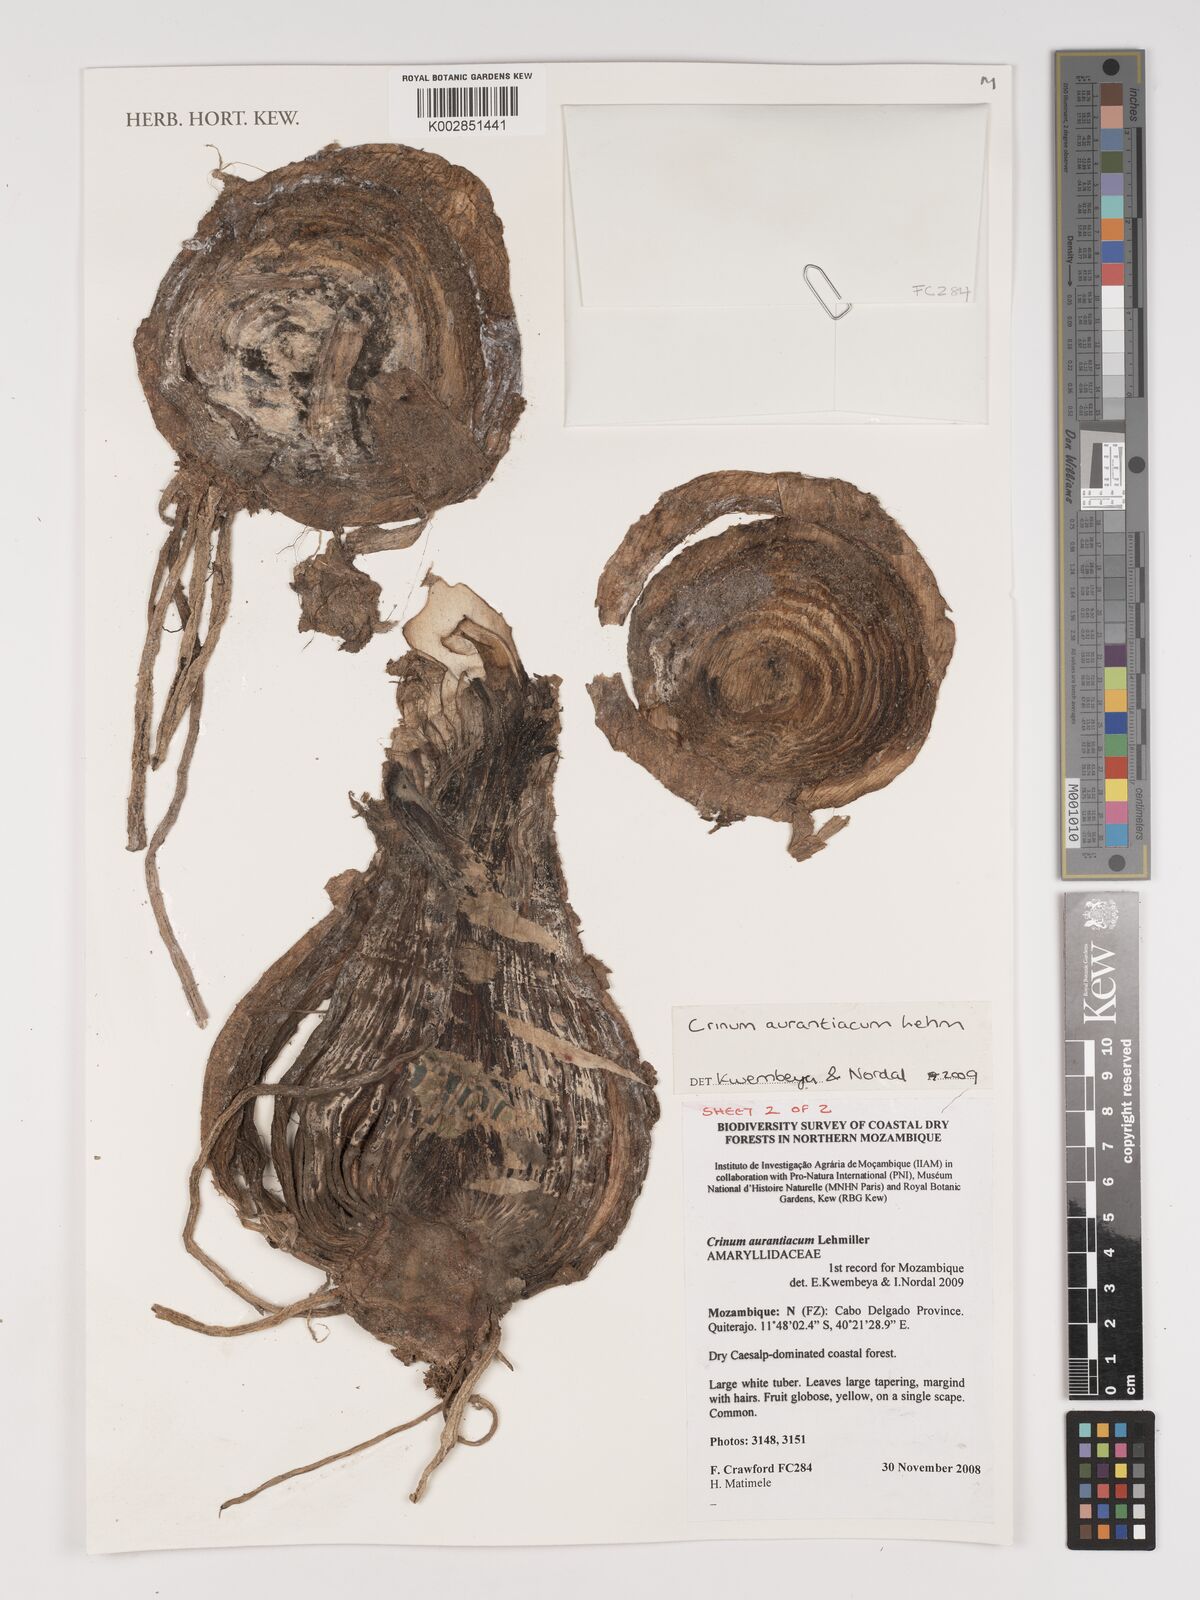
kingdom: Plantae
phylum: Tracheophyta
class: Liliopsida
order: Asparagales
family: Amaryllidaceae
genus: Crinum
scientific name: Crinum aurantiacum
